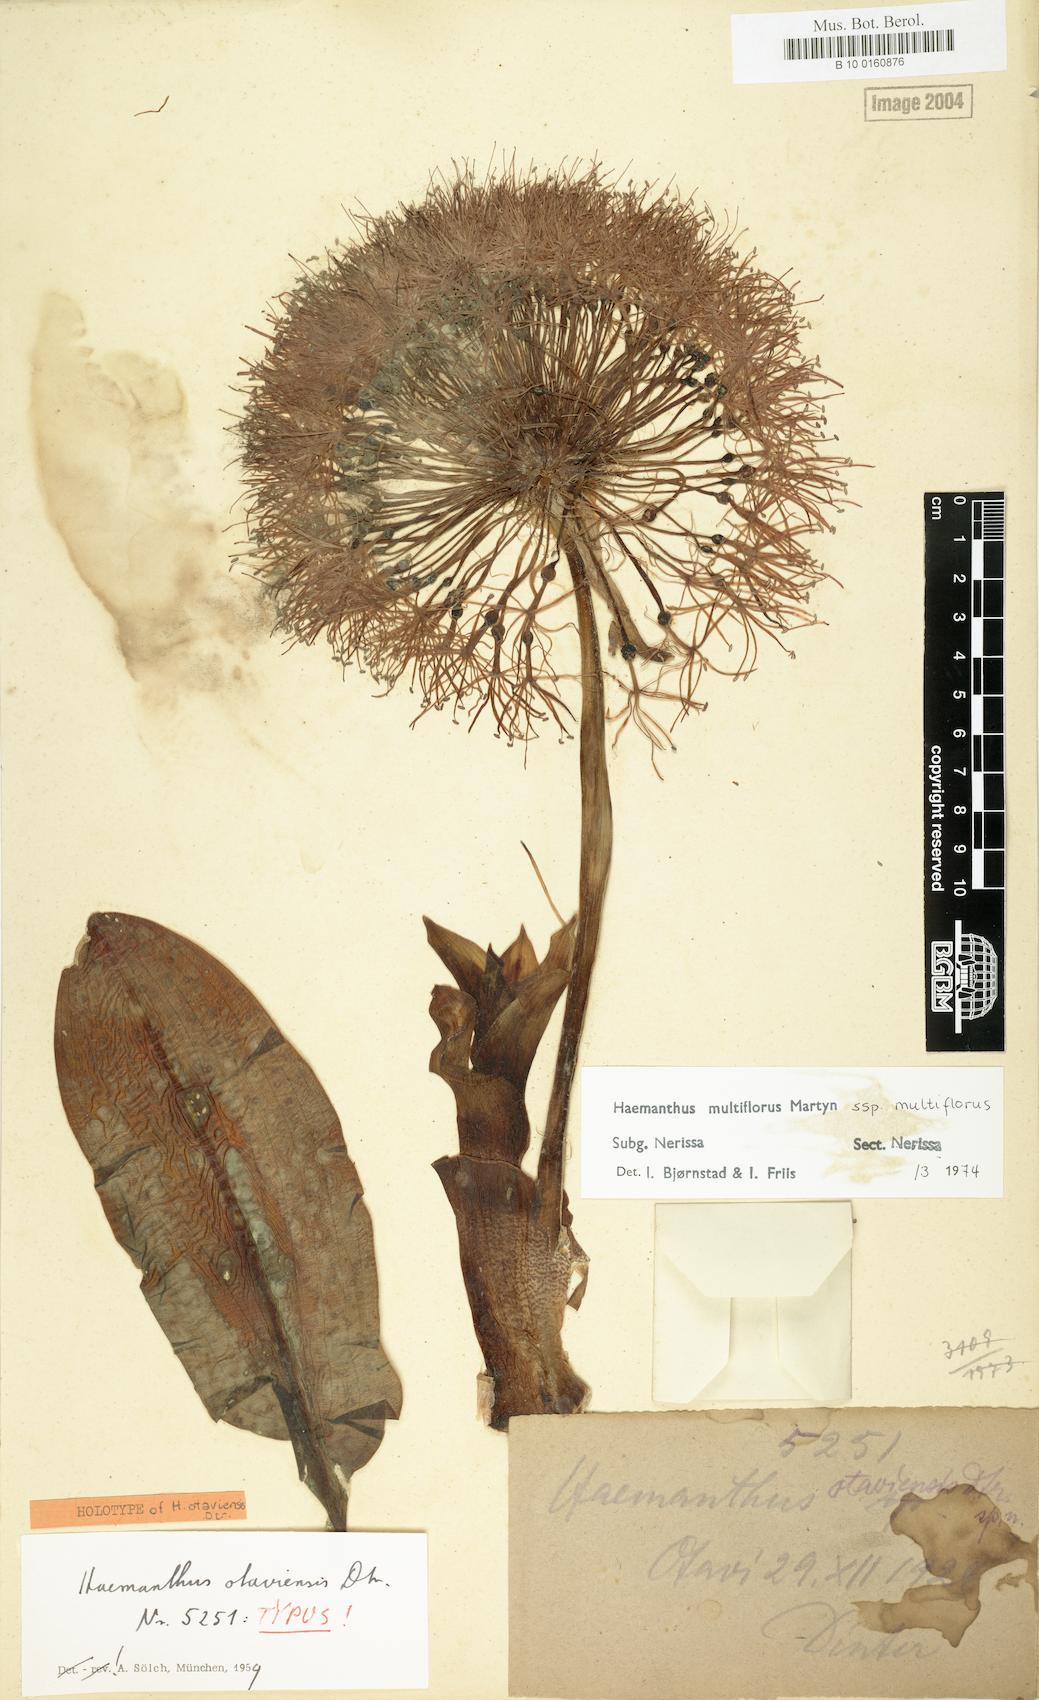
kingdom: Plantae
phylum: Tracheophyta
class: Liliopsida
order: Asparagales
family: Amaryllidaceae
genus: Scadoxus
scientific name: Scadoxus multiflorus
